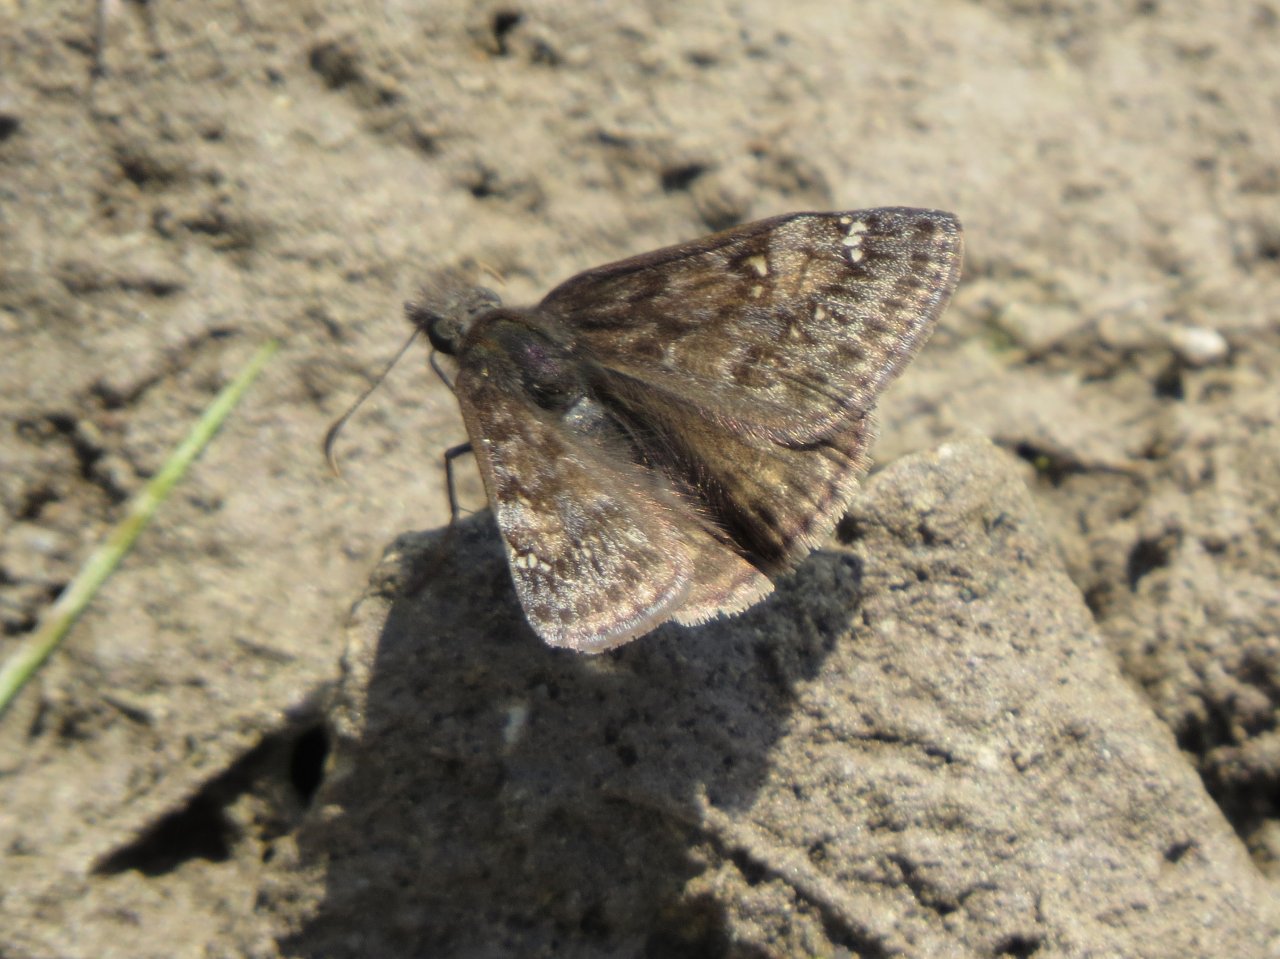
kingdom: Animalia
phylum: Arthropoda
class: Insecta
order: Lepidoptera
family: Hesperiidae
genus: Gesta
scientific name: Gesta
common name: Juvenal's Duskywing
